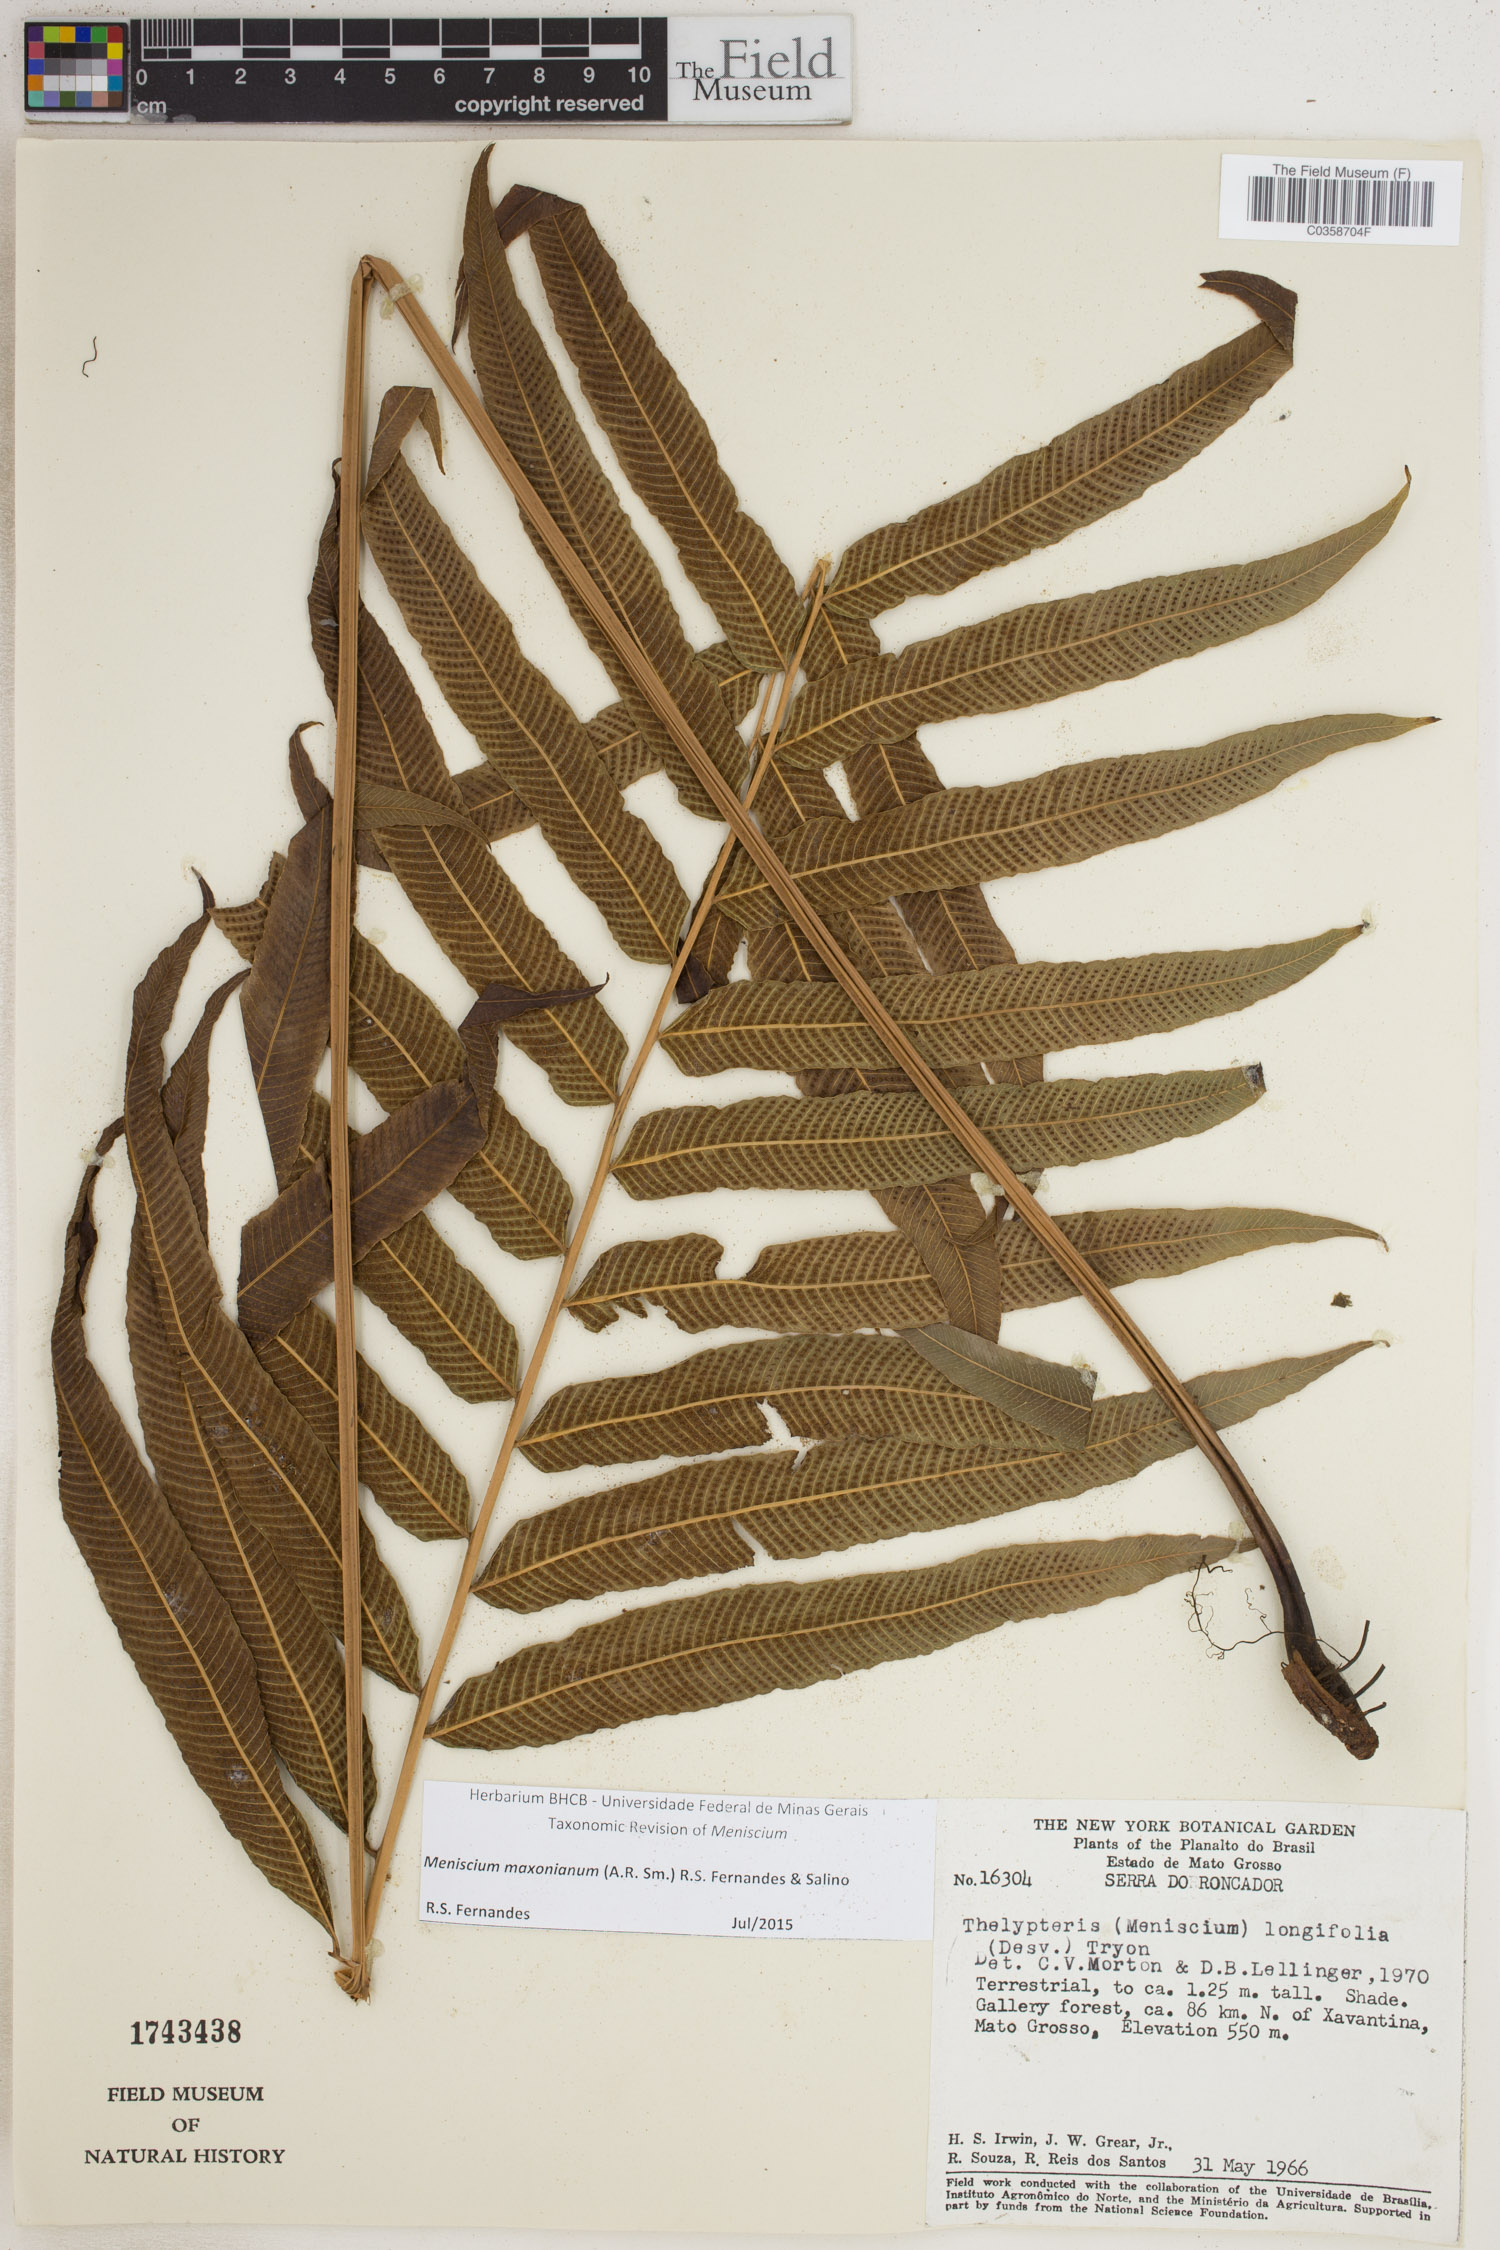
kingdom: Plantae
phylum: Tracheophyta
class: Polypodiopsida
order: Polypodiales
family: Thelypteridaceae
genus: Meniscium
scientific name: Meniscium maxonianum
